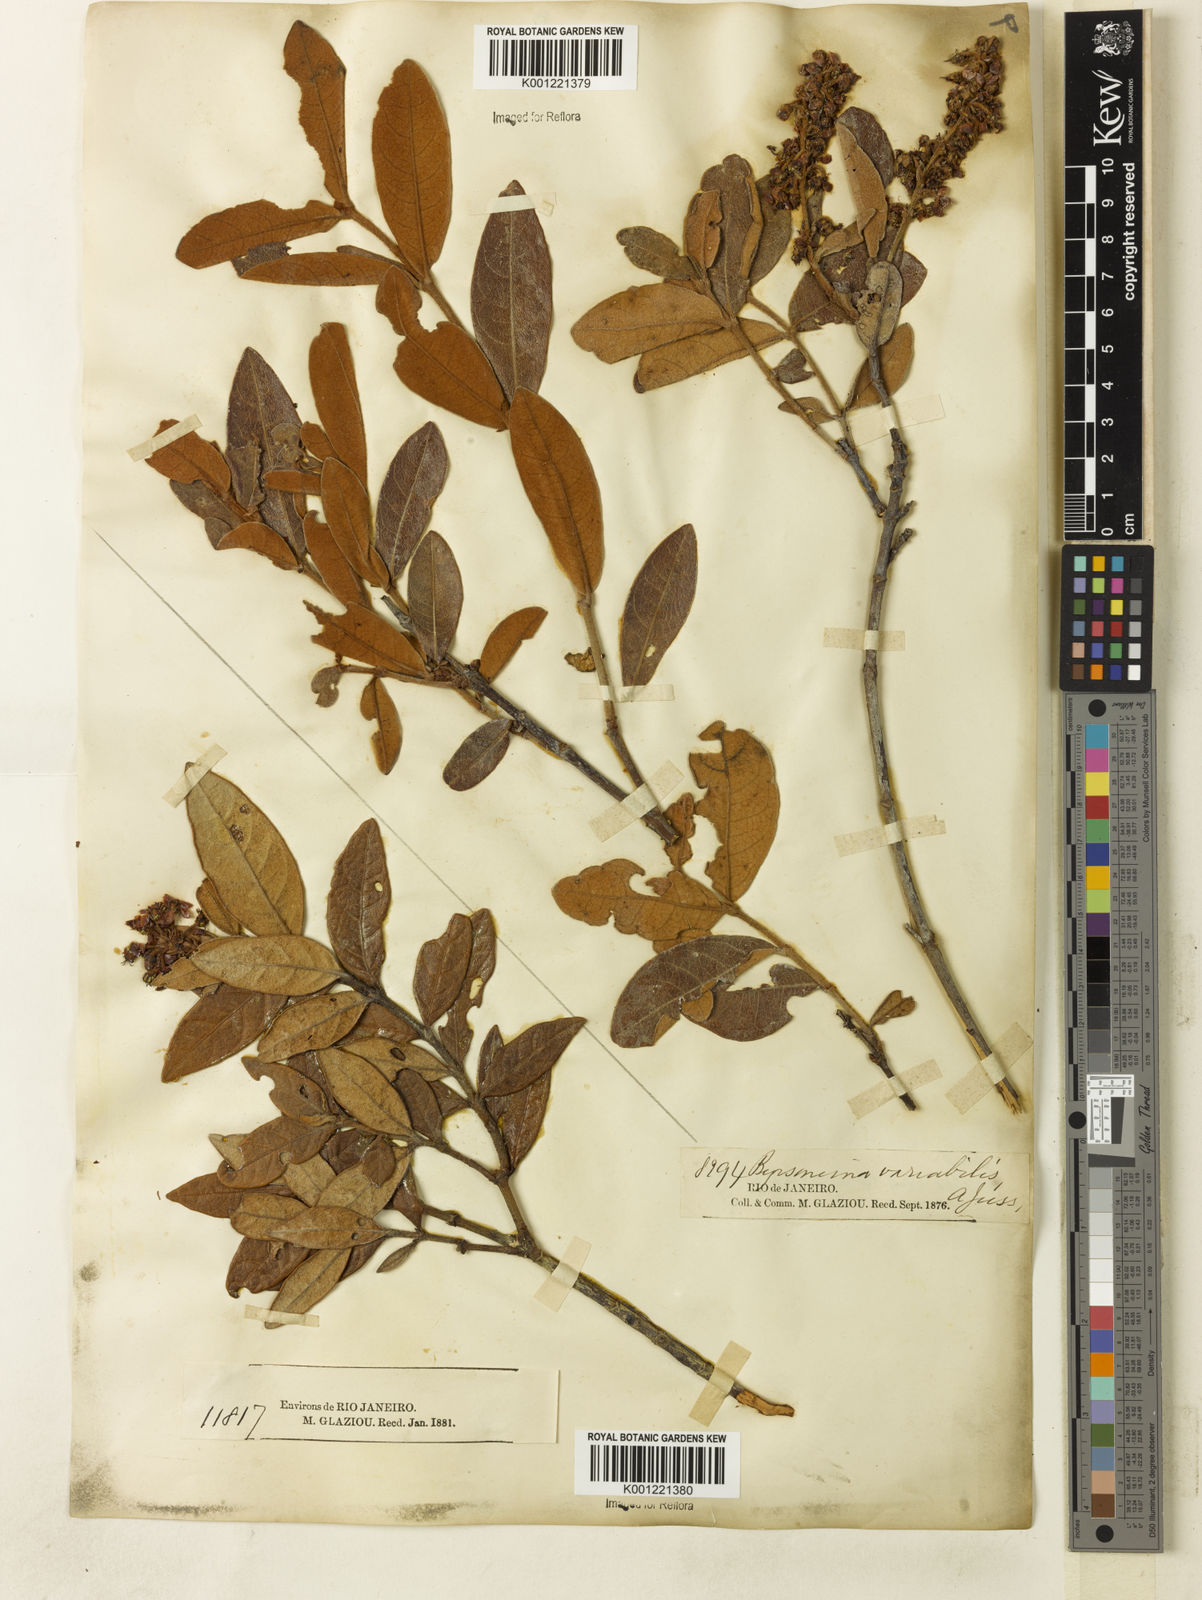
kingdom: Plantae
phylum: Tracheophyta
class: Magnoliopsida
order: Malpighiales
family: Malpighiaceae
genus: Byrsonima
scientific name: Byrsonima variabilis
